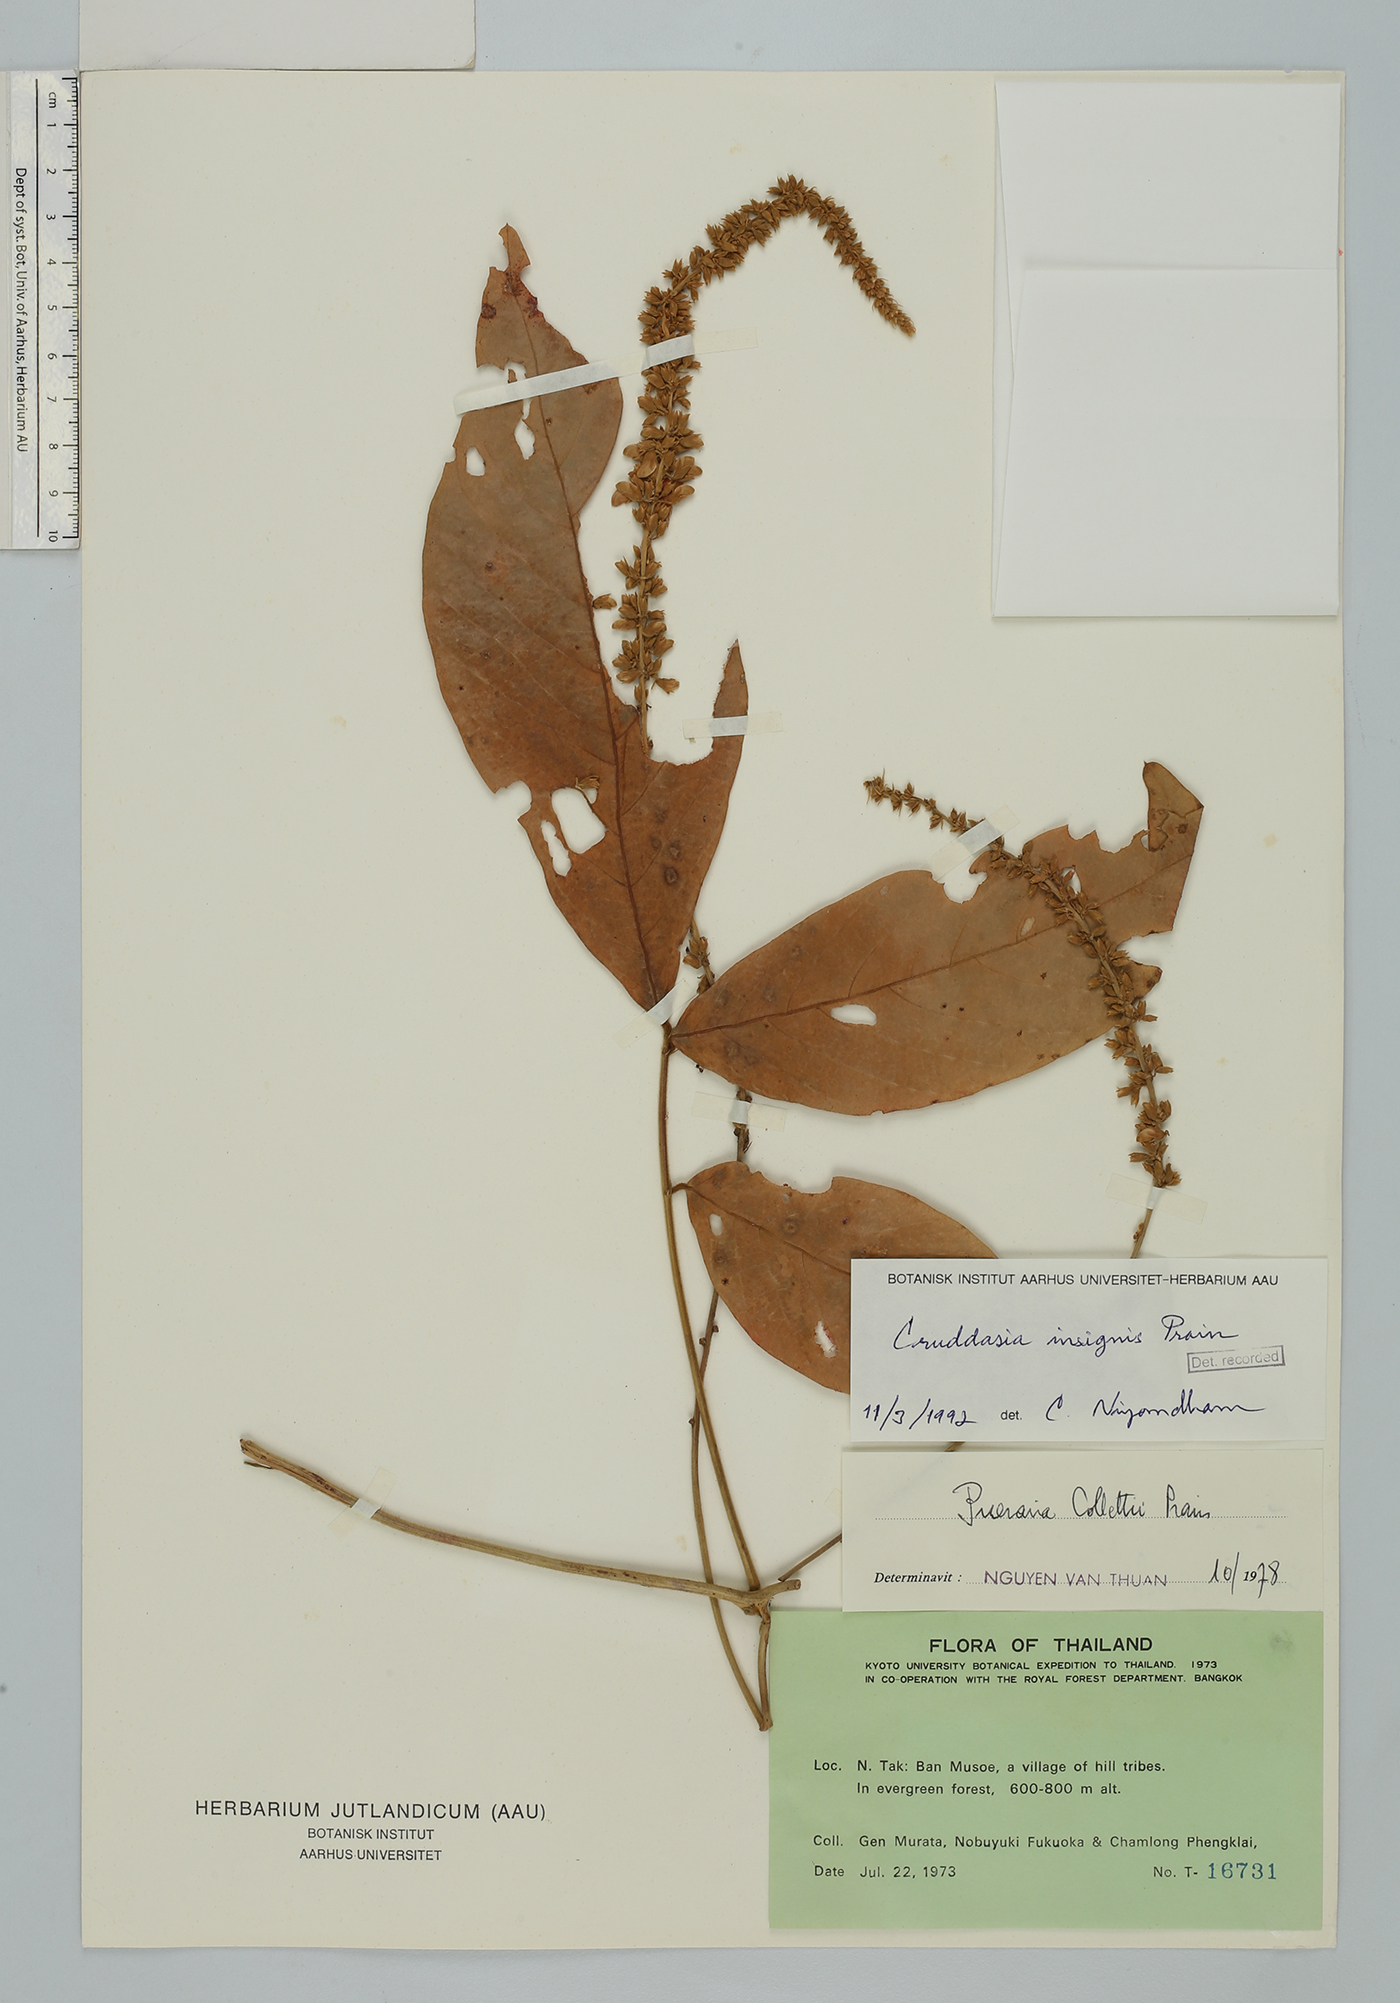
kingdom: Plantae
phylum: Tracheophyta
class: Magnoliopsida
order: Fabales
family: Fabaceae
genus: Cruddasia
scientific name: Cruddasia insignis
